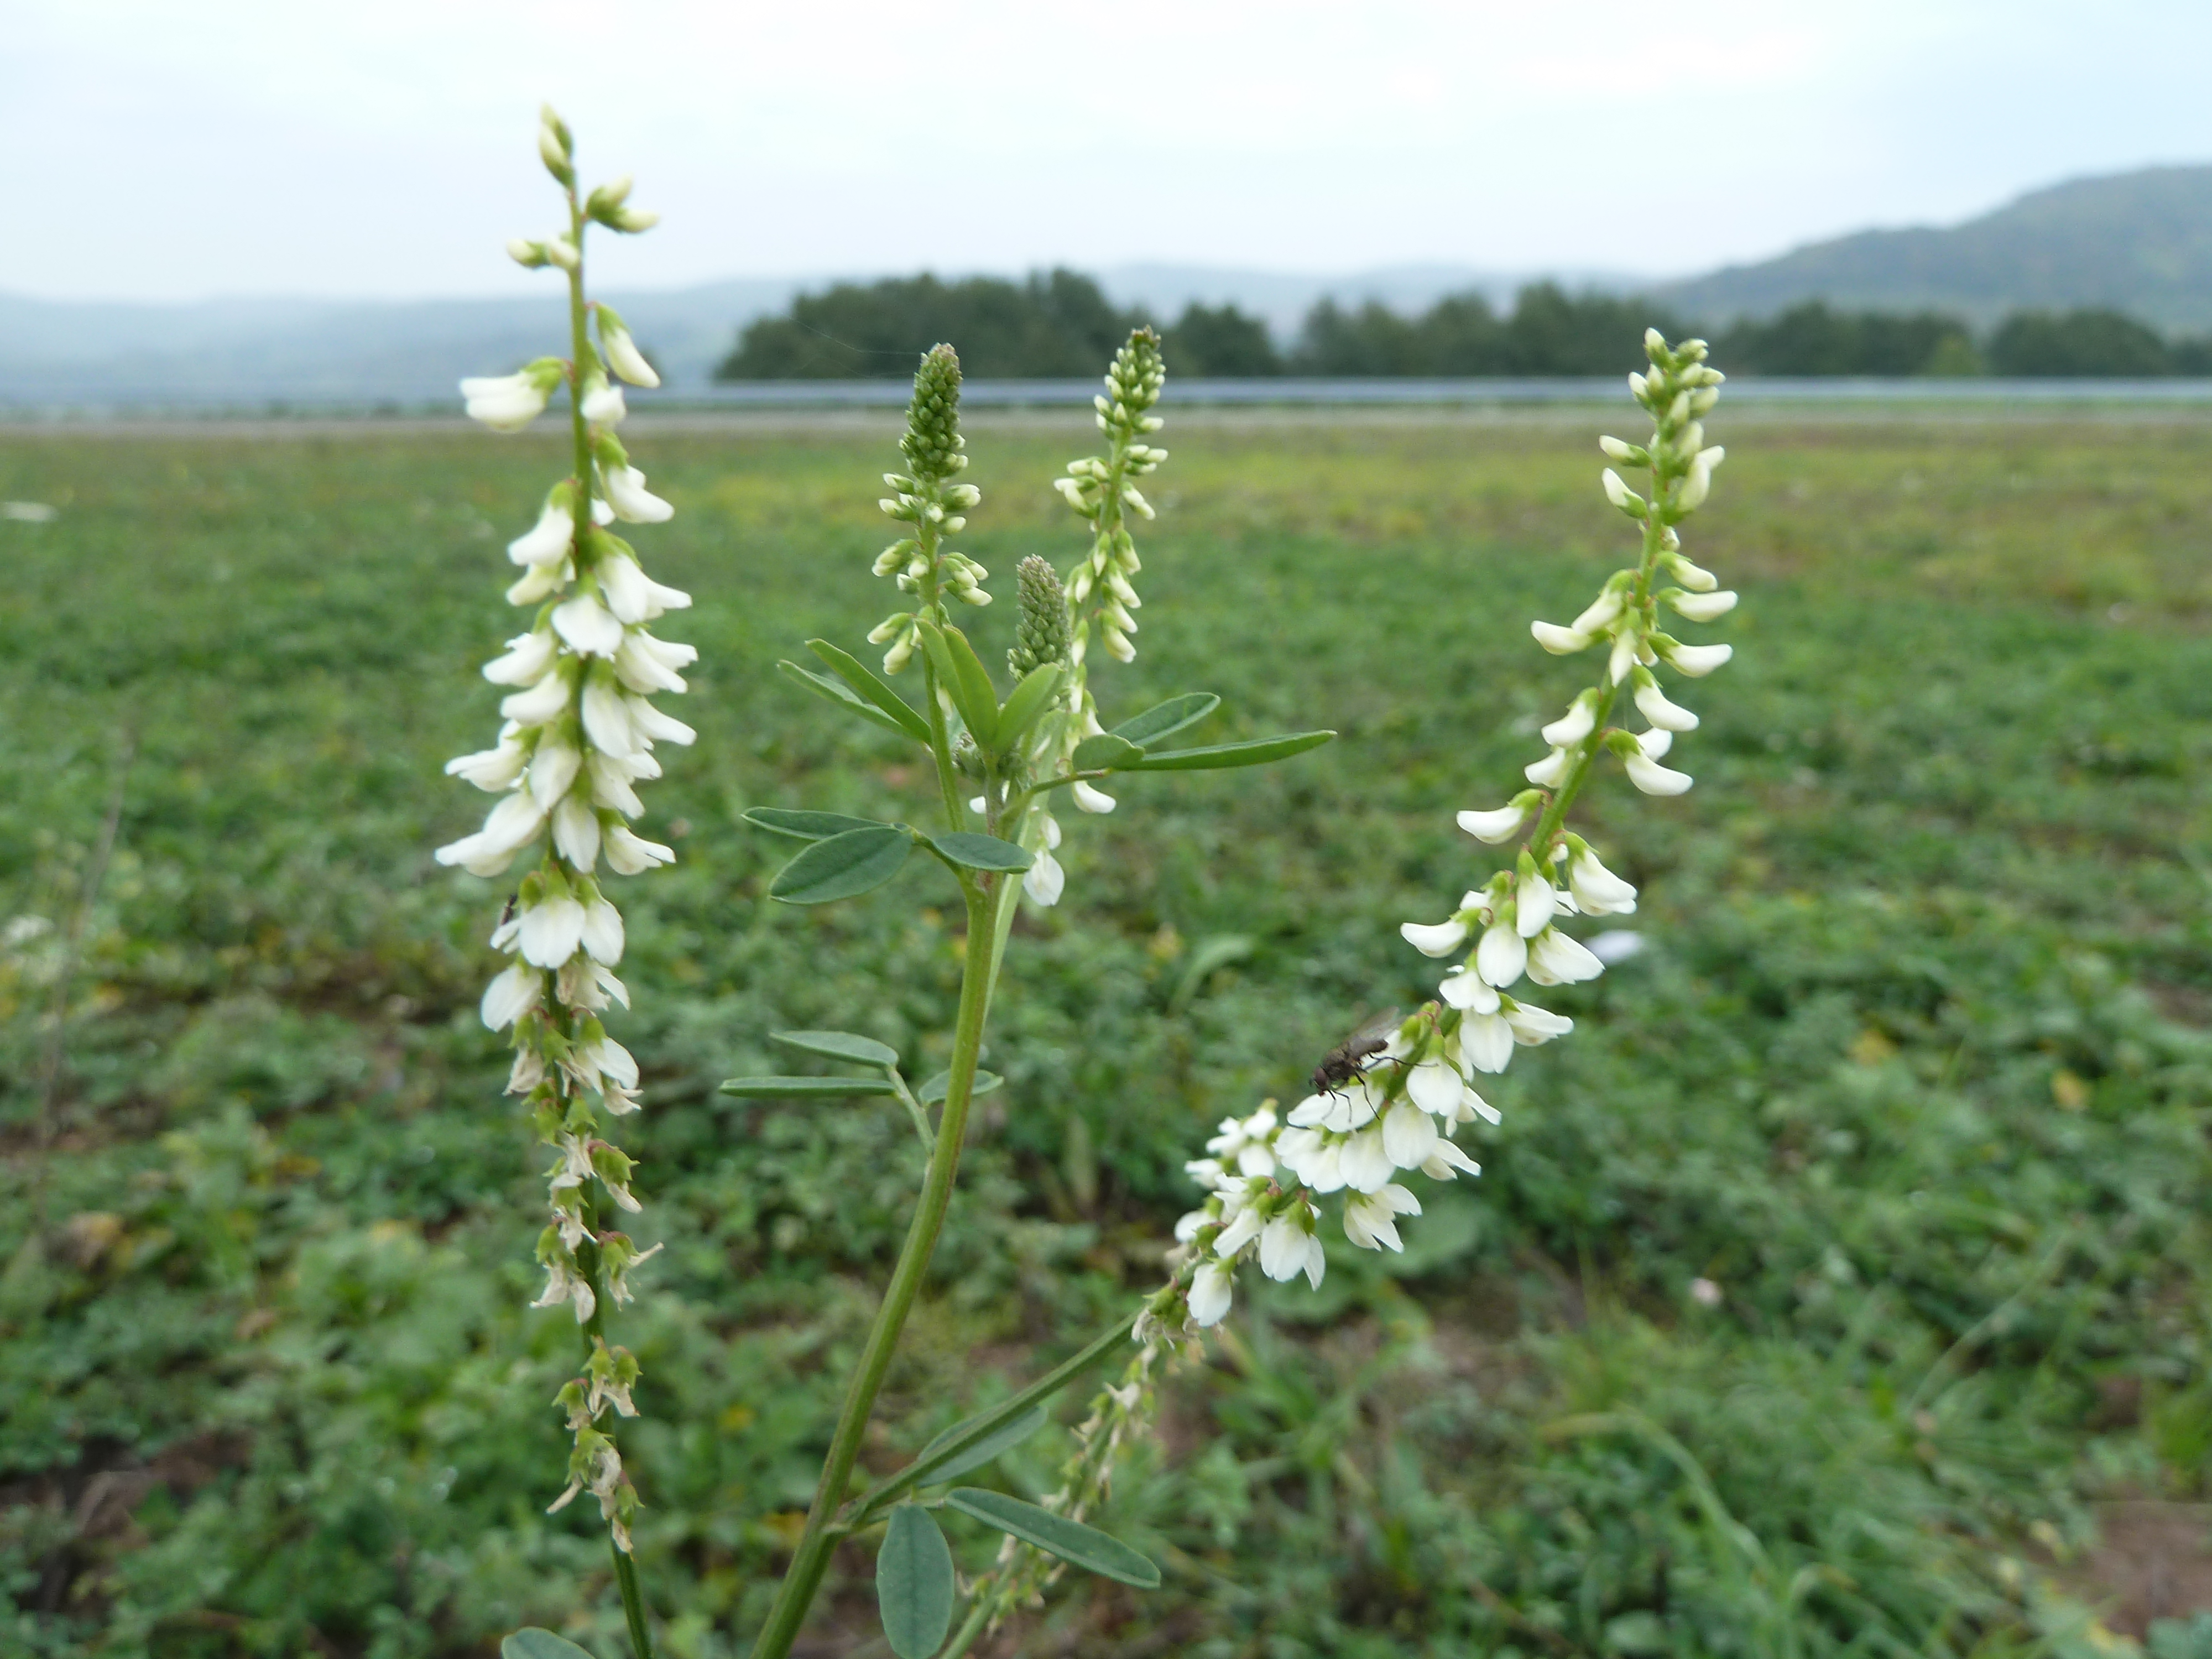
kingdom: Plantae
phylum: Tracheophyta
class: Magnoliopsida
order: Fabales
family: Fabaceae
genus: Melilotus
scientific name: Melilotus albus
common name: White melilot
